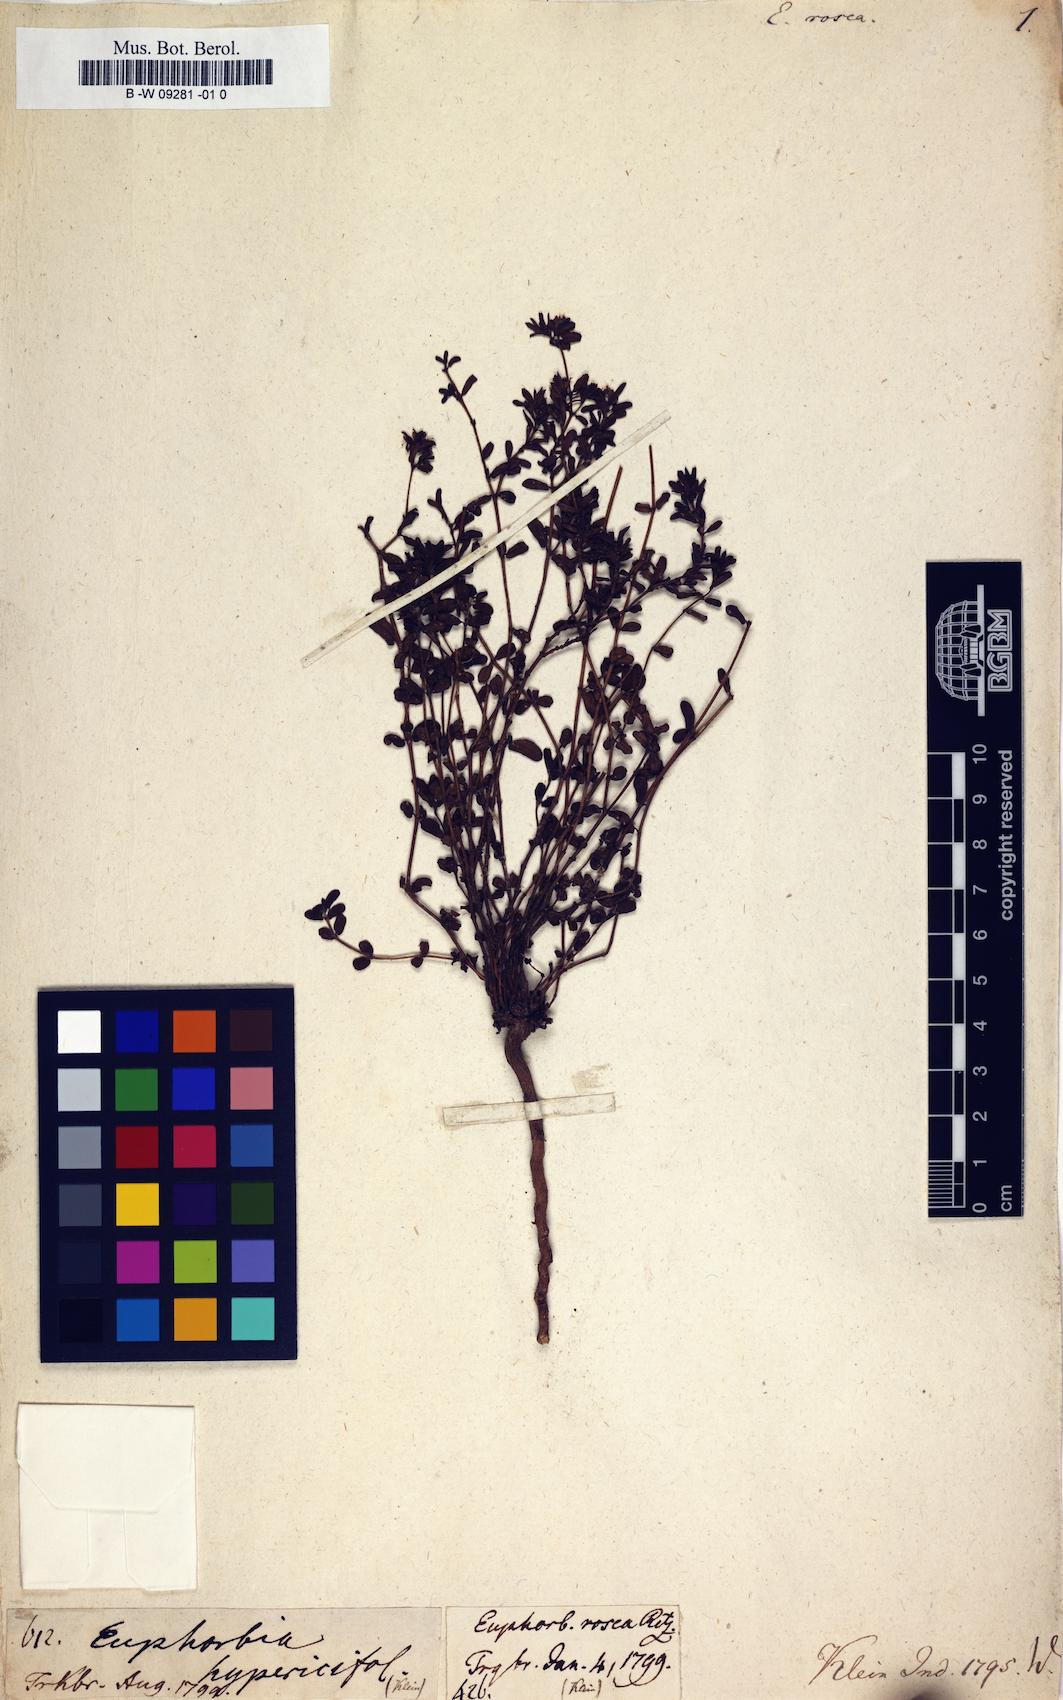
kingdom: Plantae
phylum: Tracheophyta
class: Magnoliopsida
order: Malpighiales
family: Euphorbiaceae
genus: Euphorbia
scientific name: Euphorbia rosea
